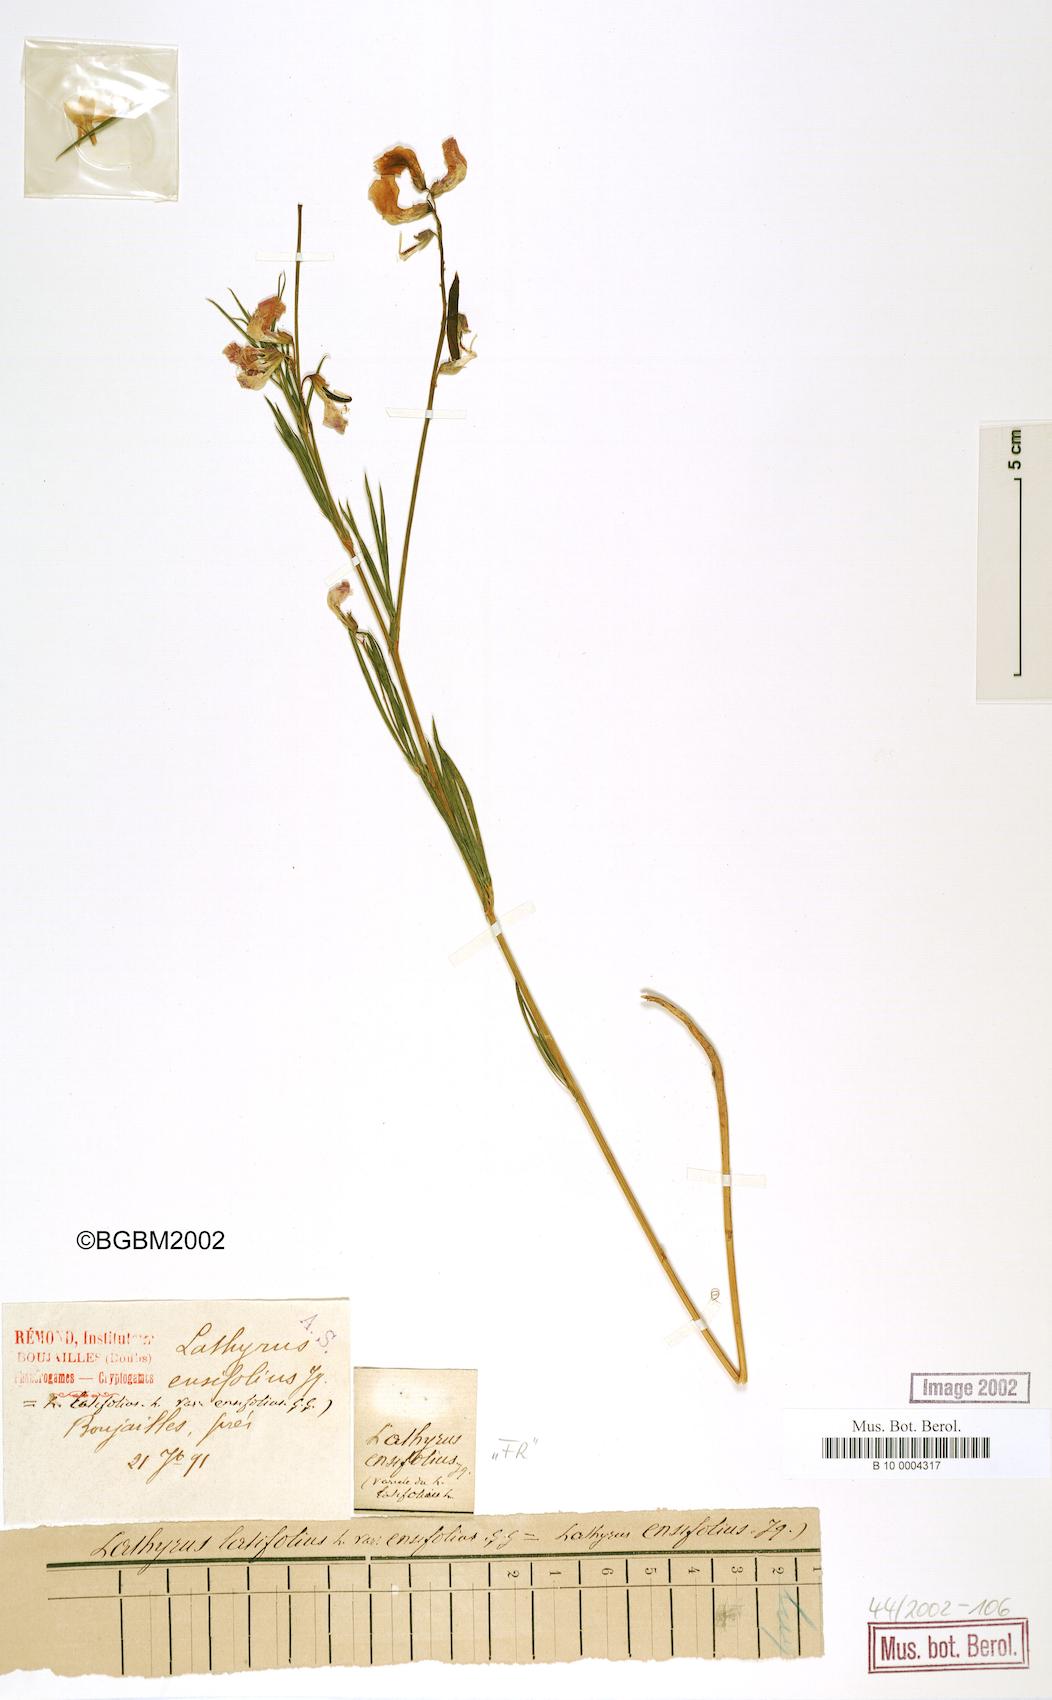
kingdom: Plantae
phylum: Tracheophyta
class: Magnoliopsida
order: Fabales
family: Fabaceae
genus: Lathyrus
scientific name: Lathyrus bauhini
